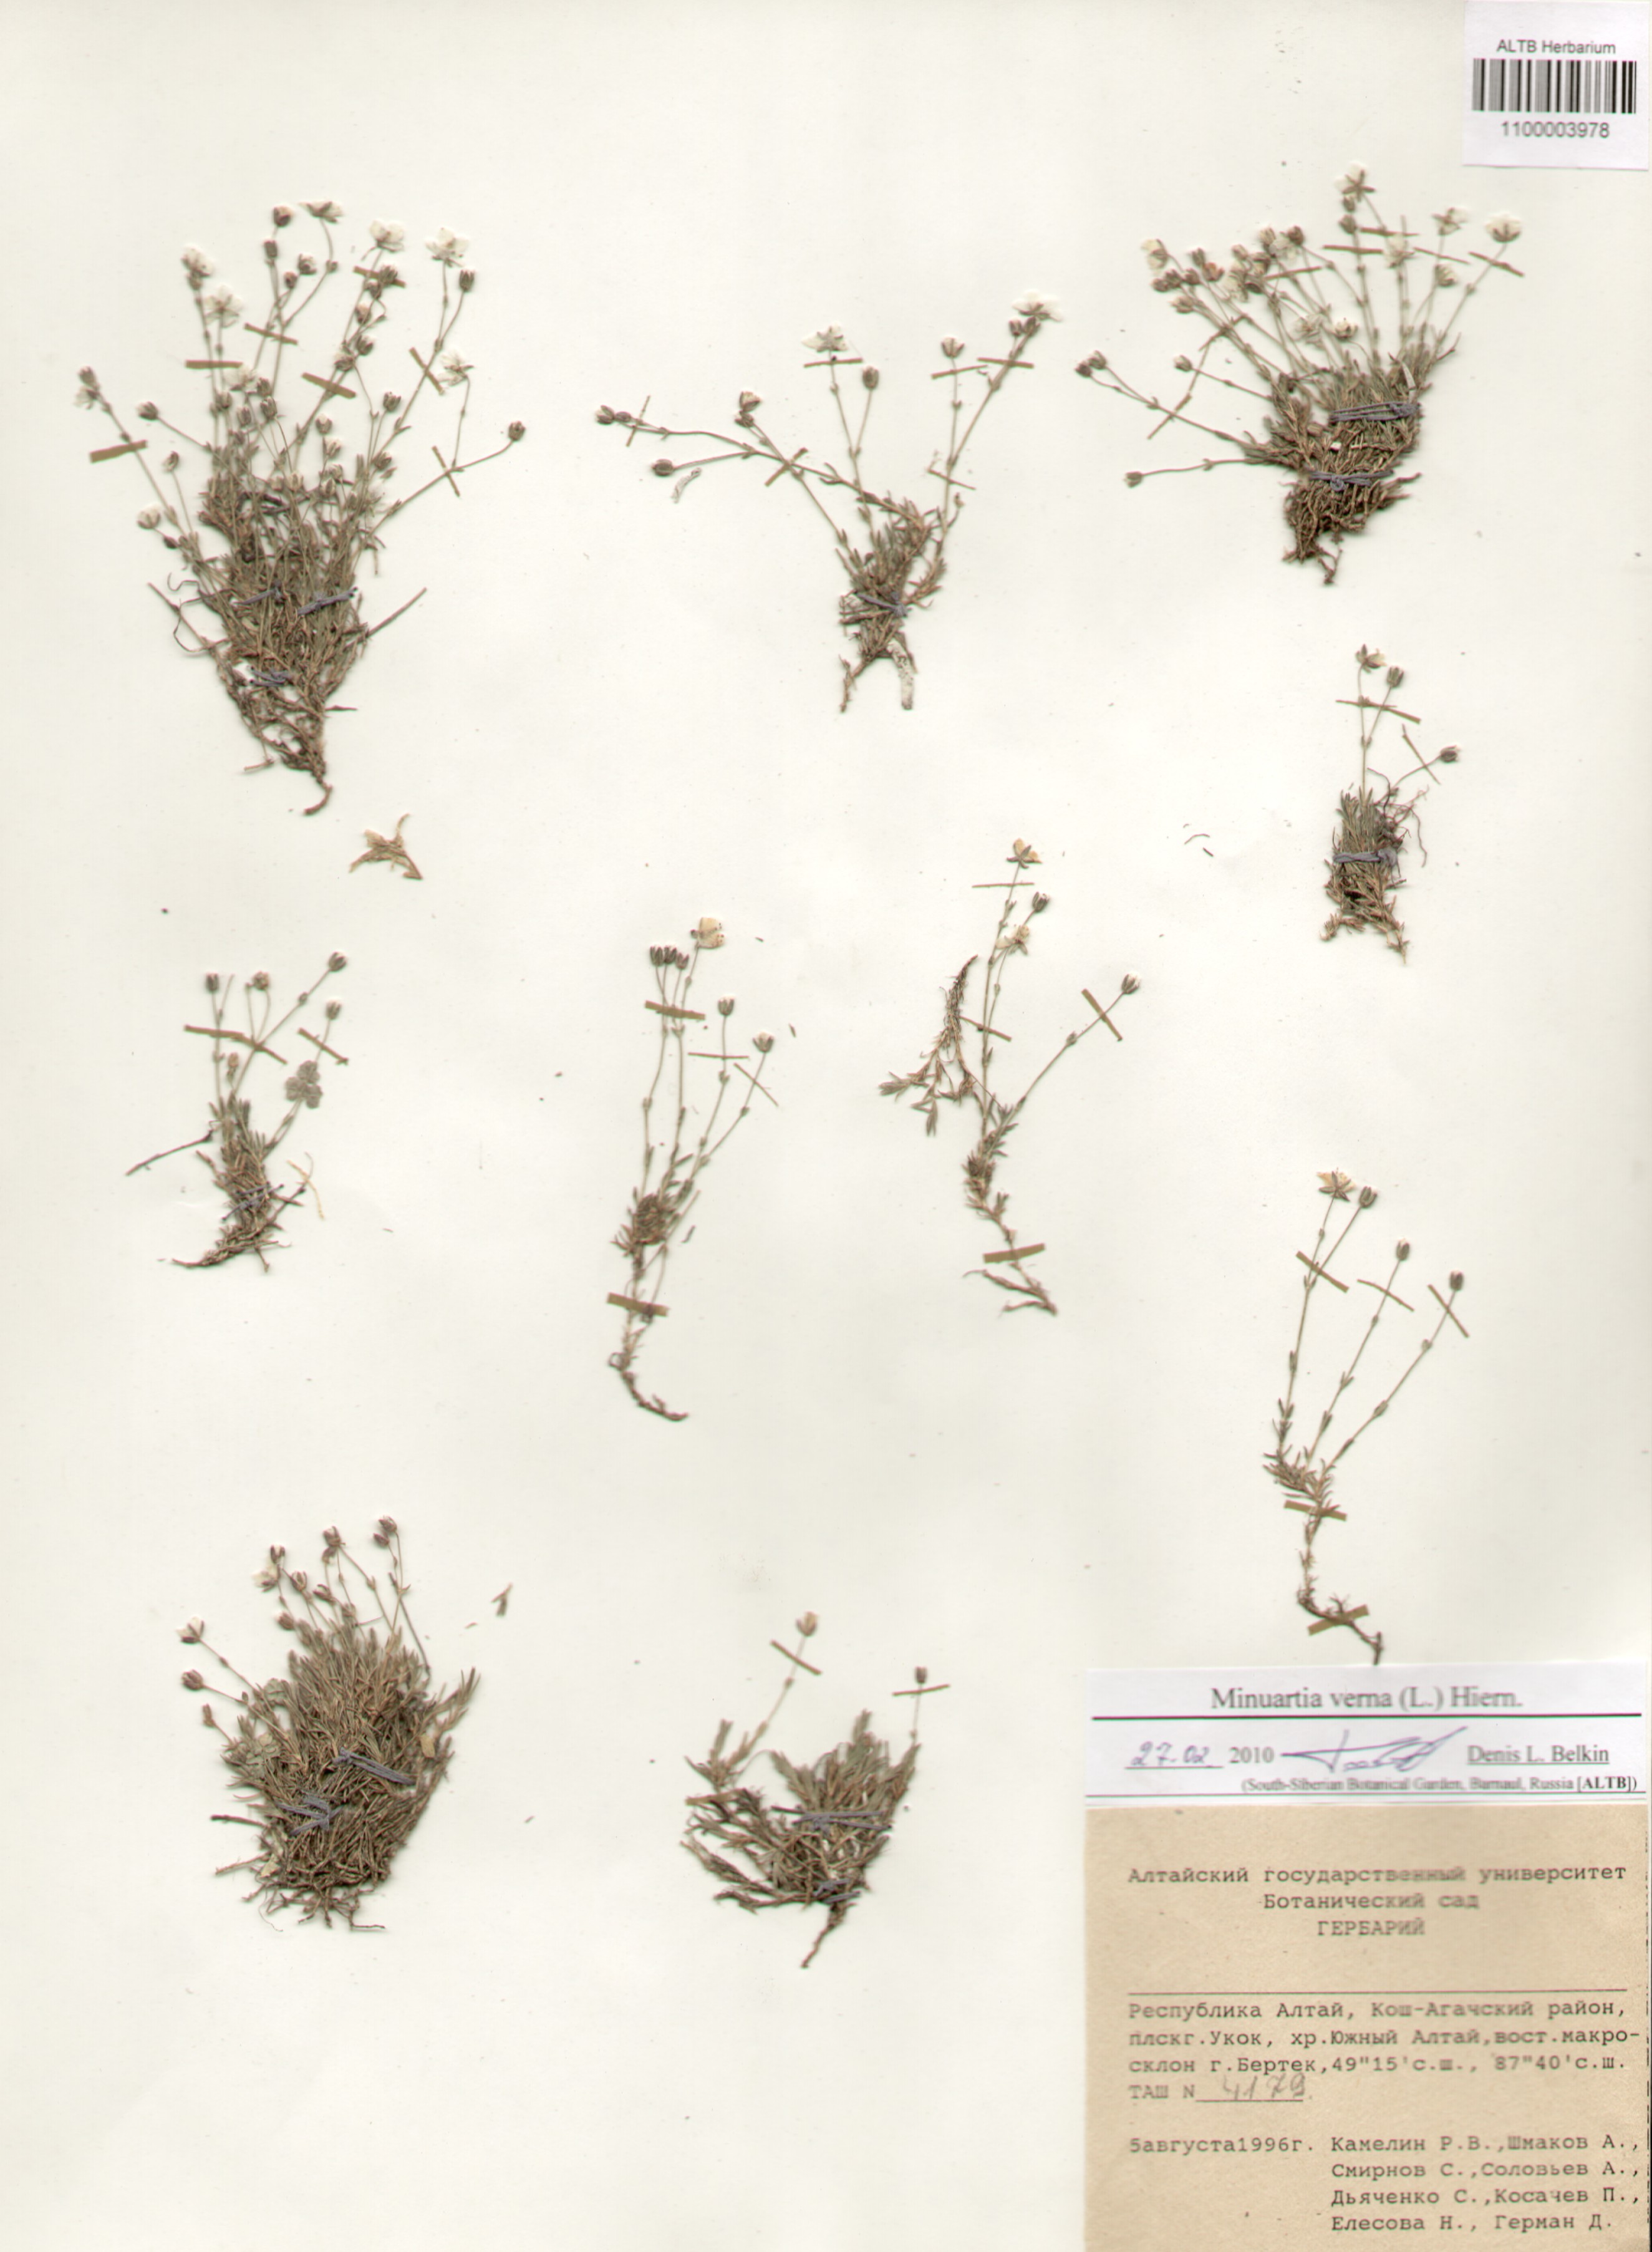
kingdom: Plantae
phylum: Tracheophyta
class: Magnoliopsida
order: Caryophyllales
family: Caryophyllaceae
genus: Sabulina
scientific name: Sabulina verna
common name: Spring sandwort
